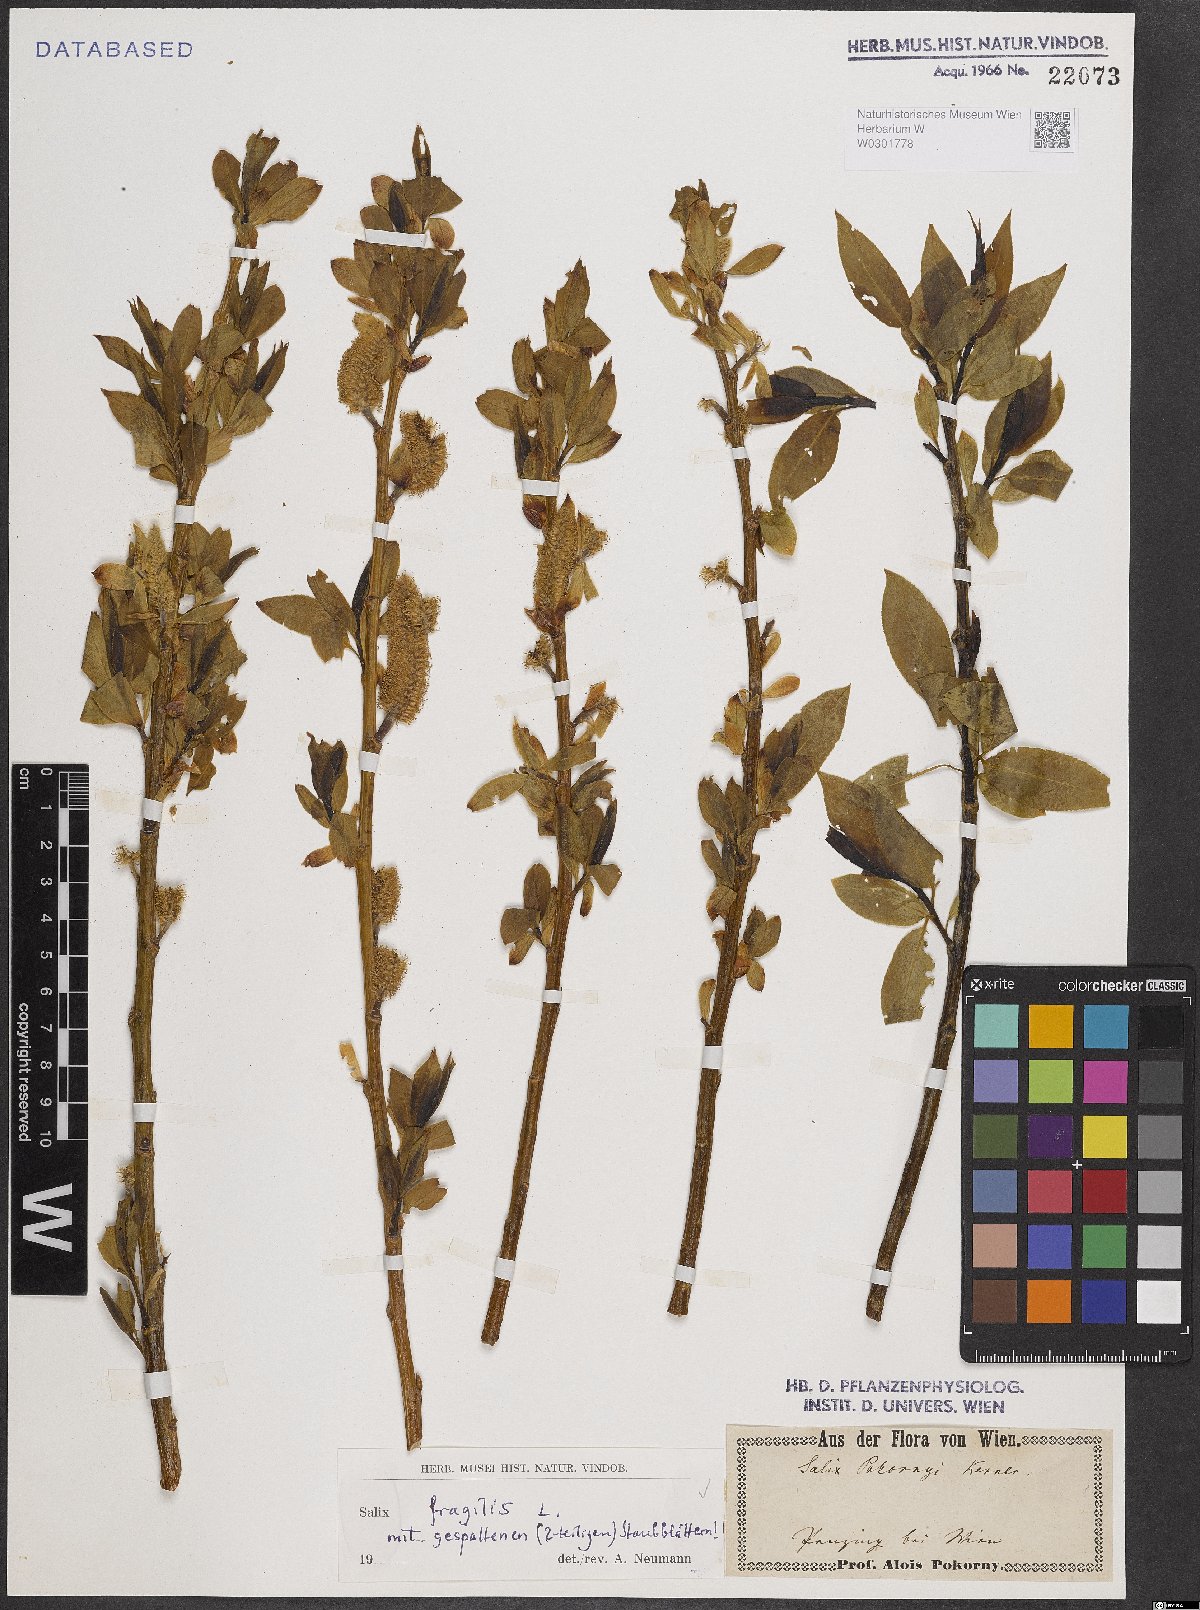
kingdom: Plantae
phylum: Tracheophyta
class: Magnoliopsida
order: Malpighiales
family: Salicaceae
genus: Salix
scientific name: Salix fragilis
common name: Crack willow
